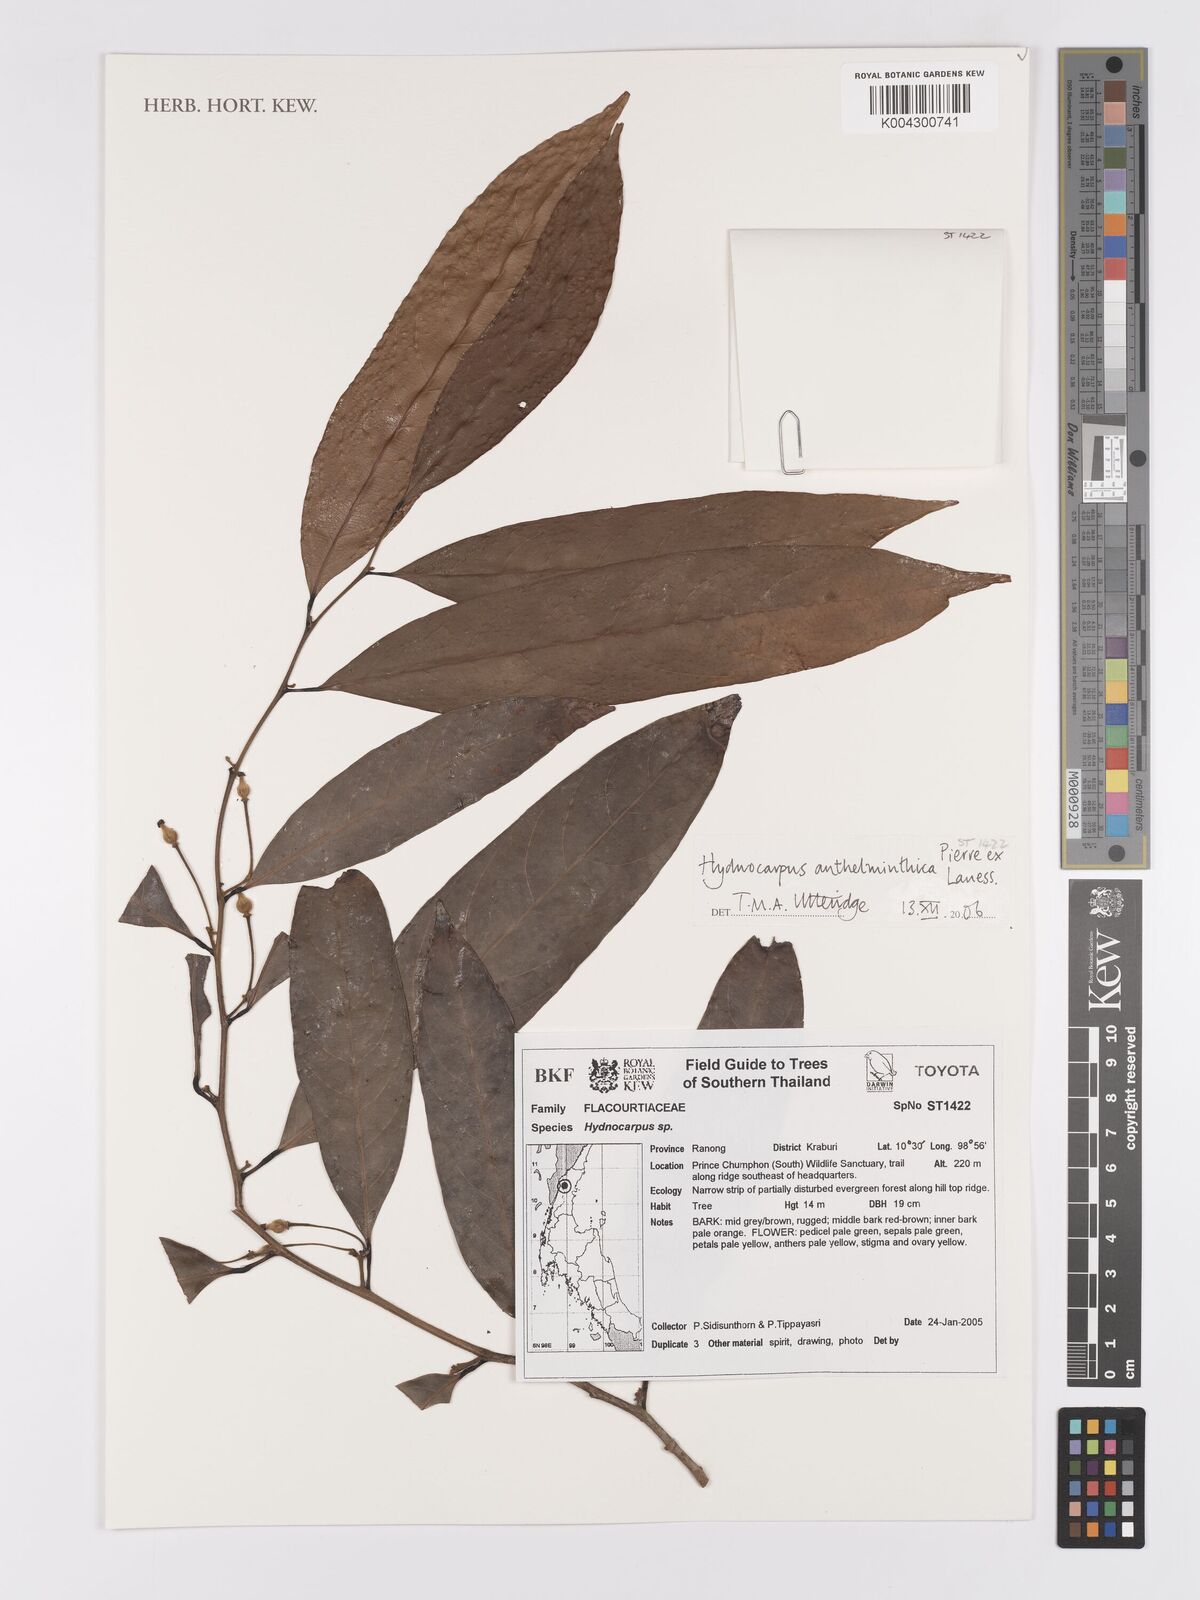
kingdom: Plantae
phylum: Tracheophyta
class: Magnoliopsida
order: Malpighiales
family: Achariaceae
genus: Hydnocarpus
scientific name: Hydnocarpus
